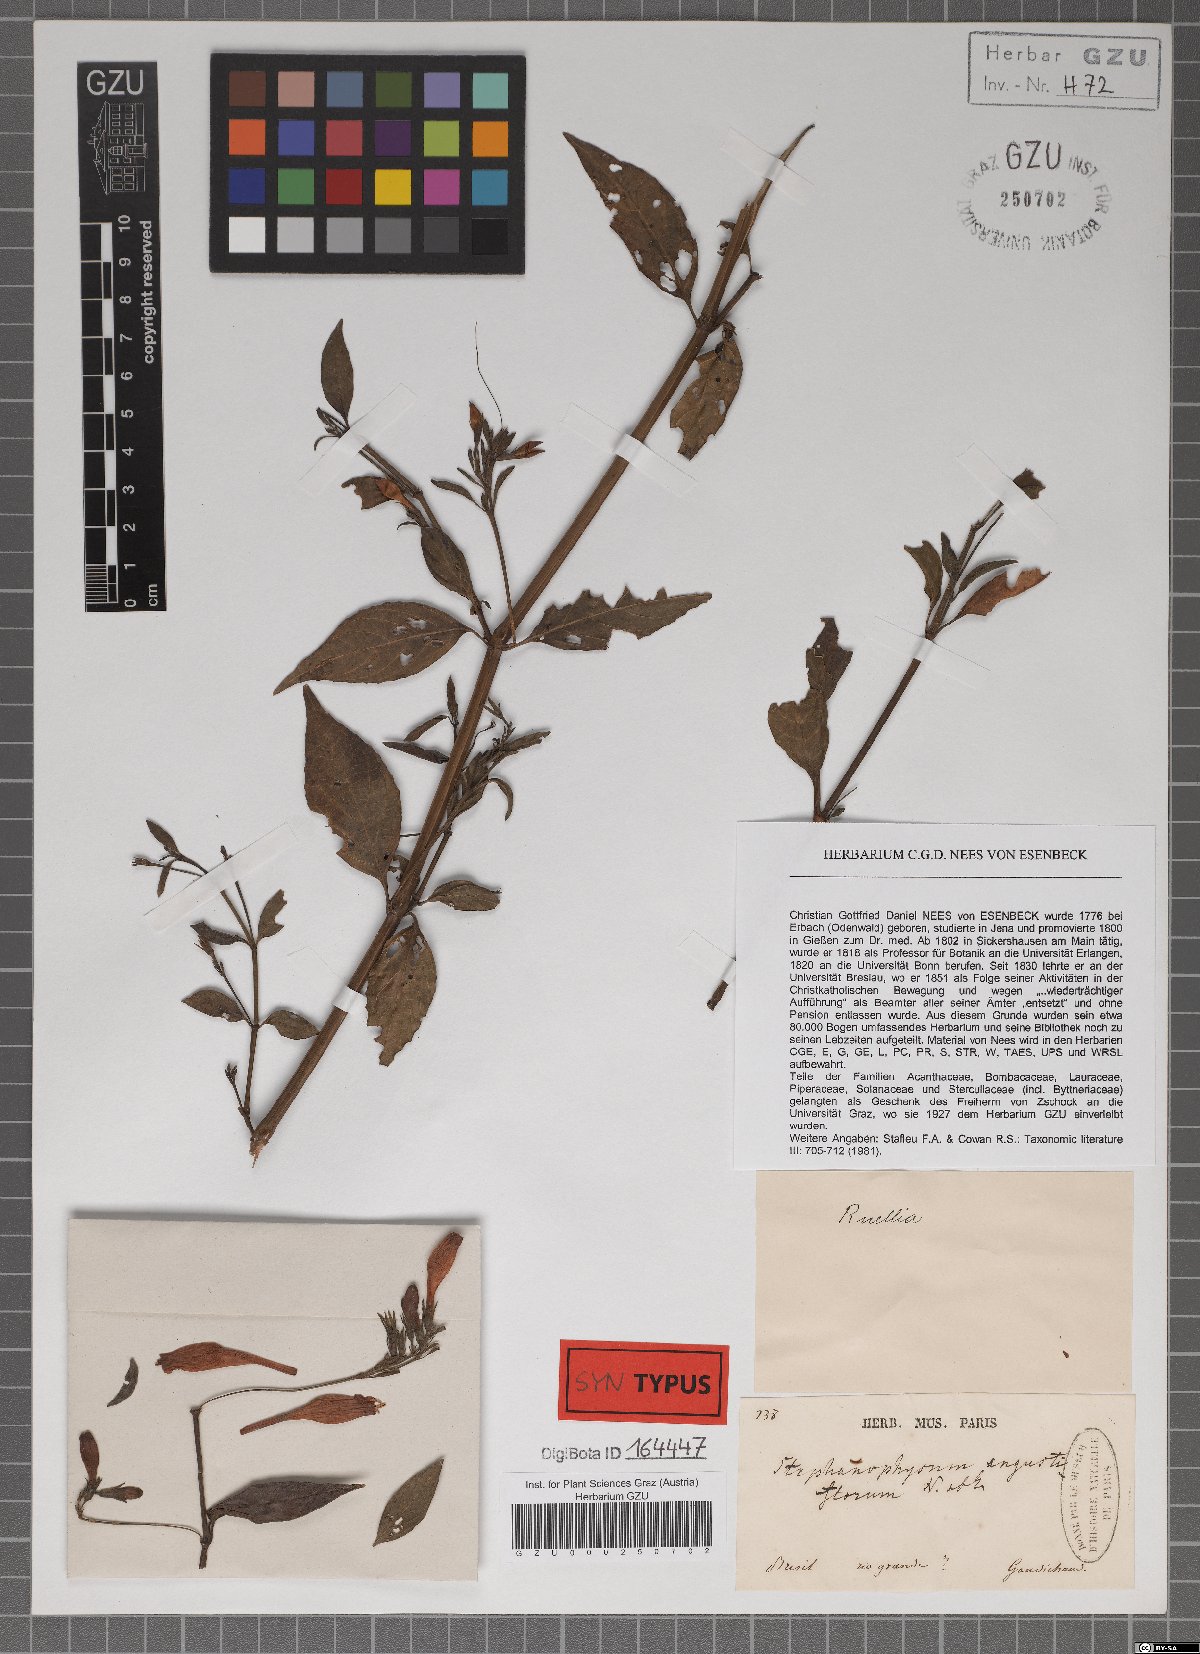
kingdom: Plantae
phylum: Tracheophyta
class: Magnoliopsida
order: Lamiales
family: Acanthaceae
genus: Ruellia
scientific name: Ruellia angustiflora
